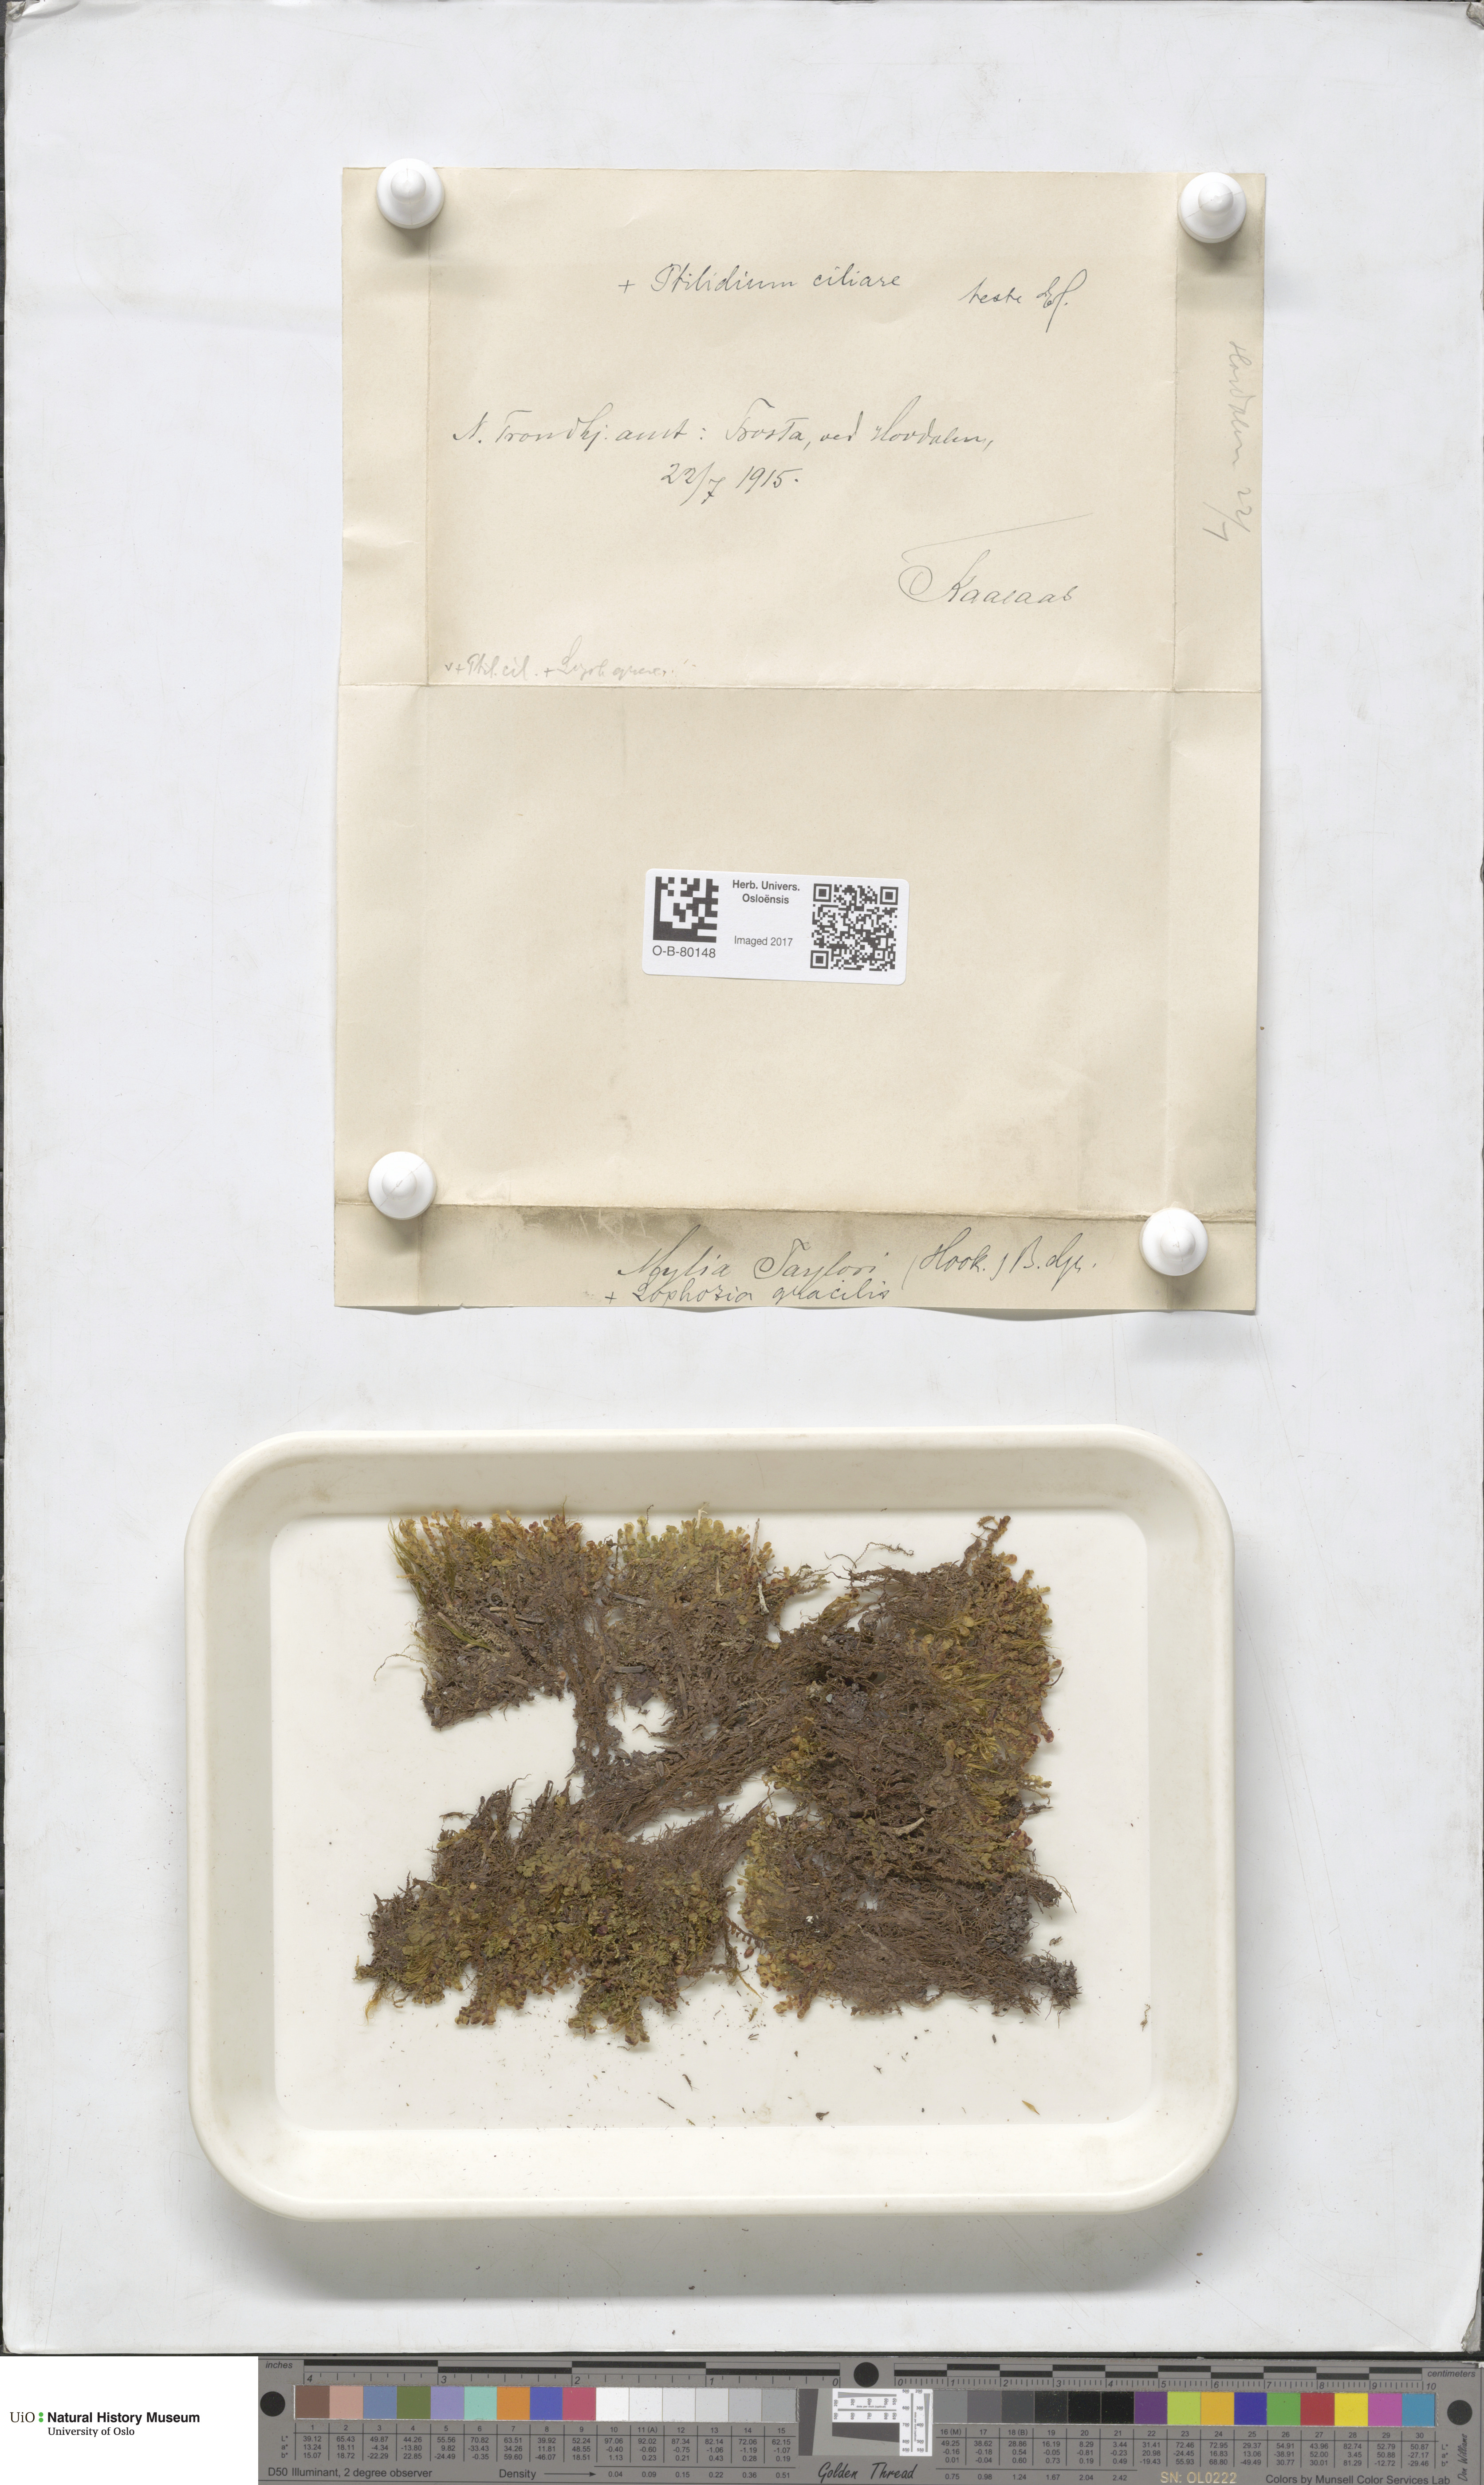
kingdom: Plantae
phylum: Marchantiophyta
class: Jungermanniopsida
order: Jungermanniales
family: Myliaceae
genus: Mylia
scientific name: Mylia taylorii
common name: Taylor s flapwort
